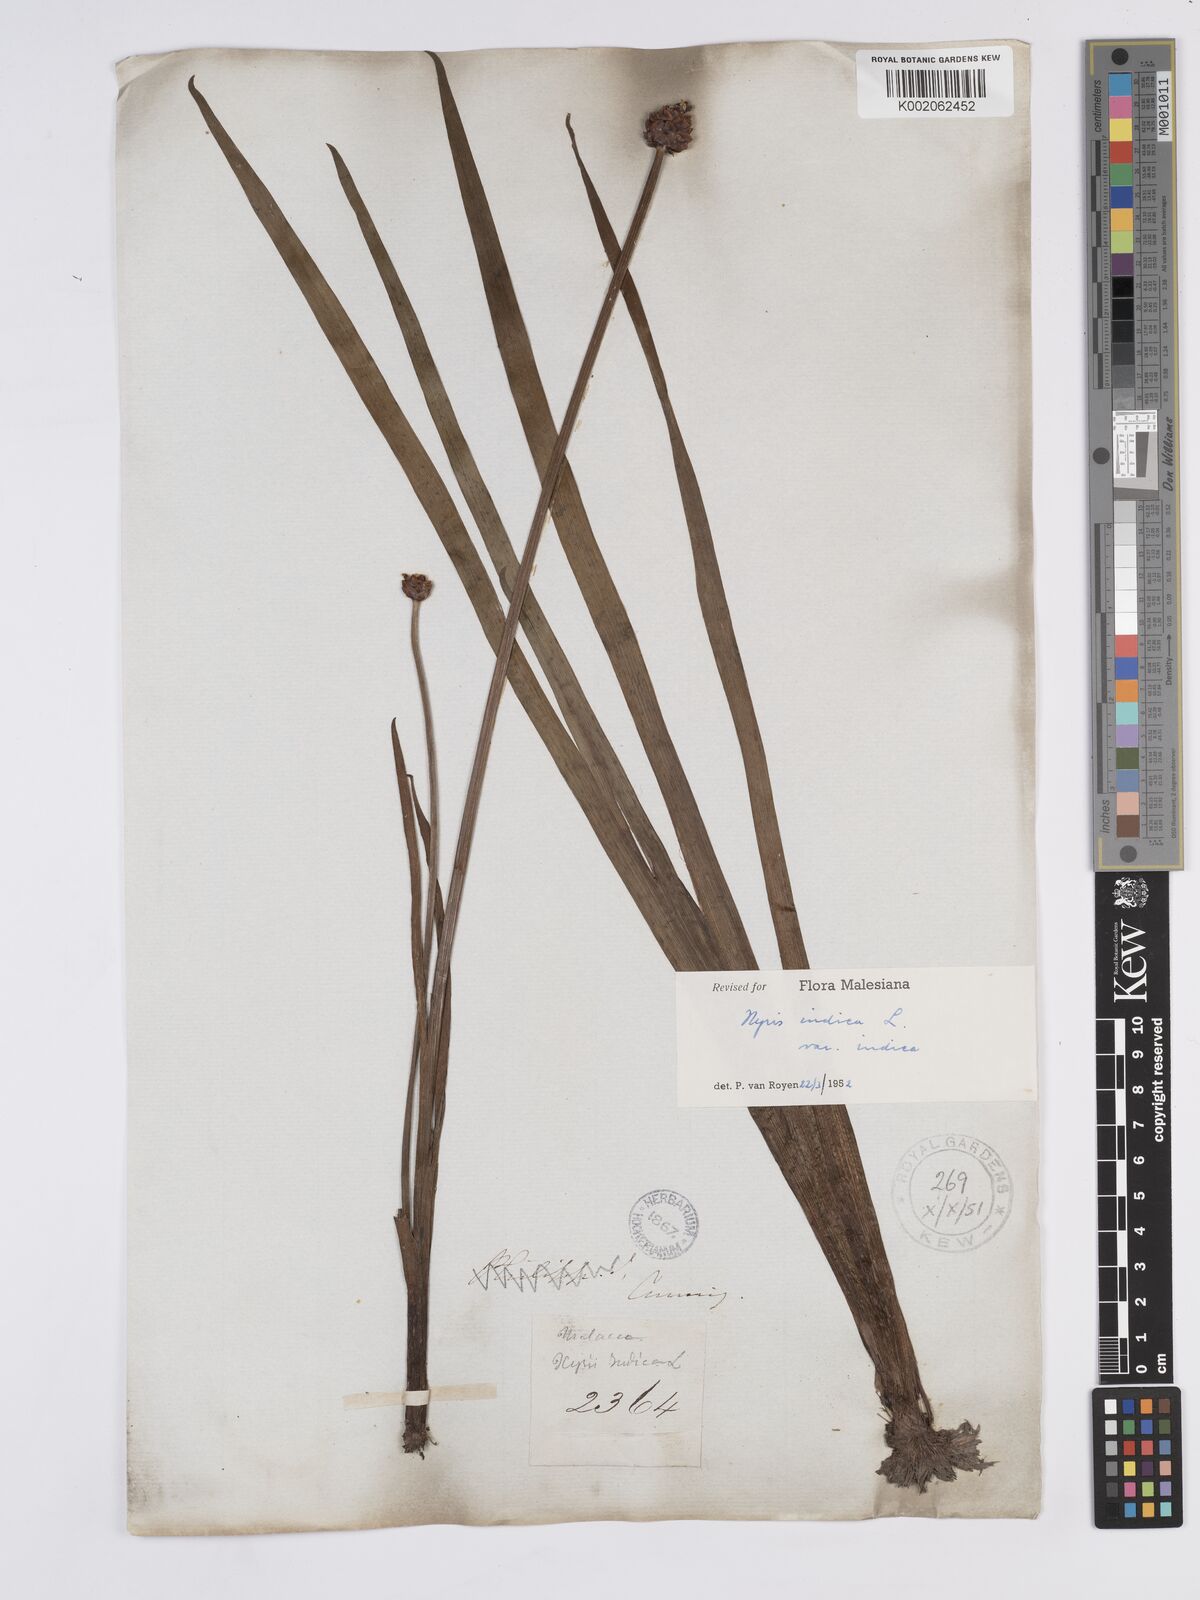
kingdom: Plantae
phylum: Tracheophyta
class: Liliopsida
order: Poales
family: Xyridaceae
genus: Xyris
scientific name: Xyris indica
